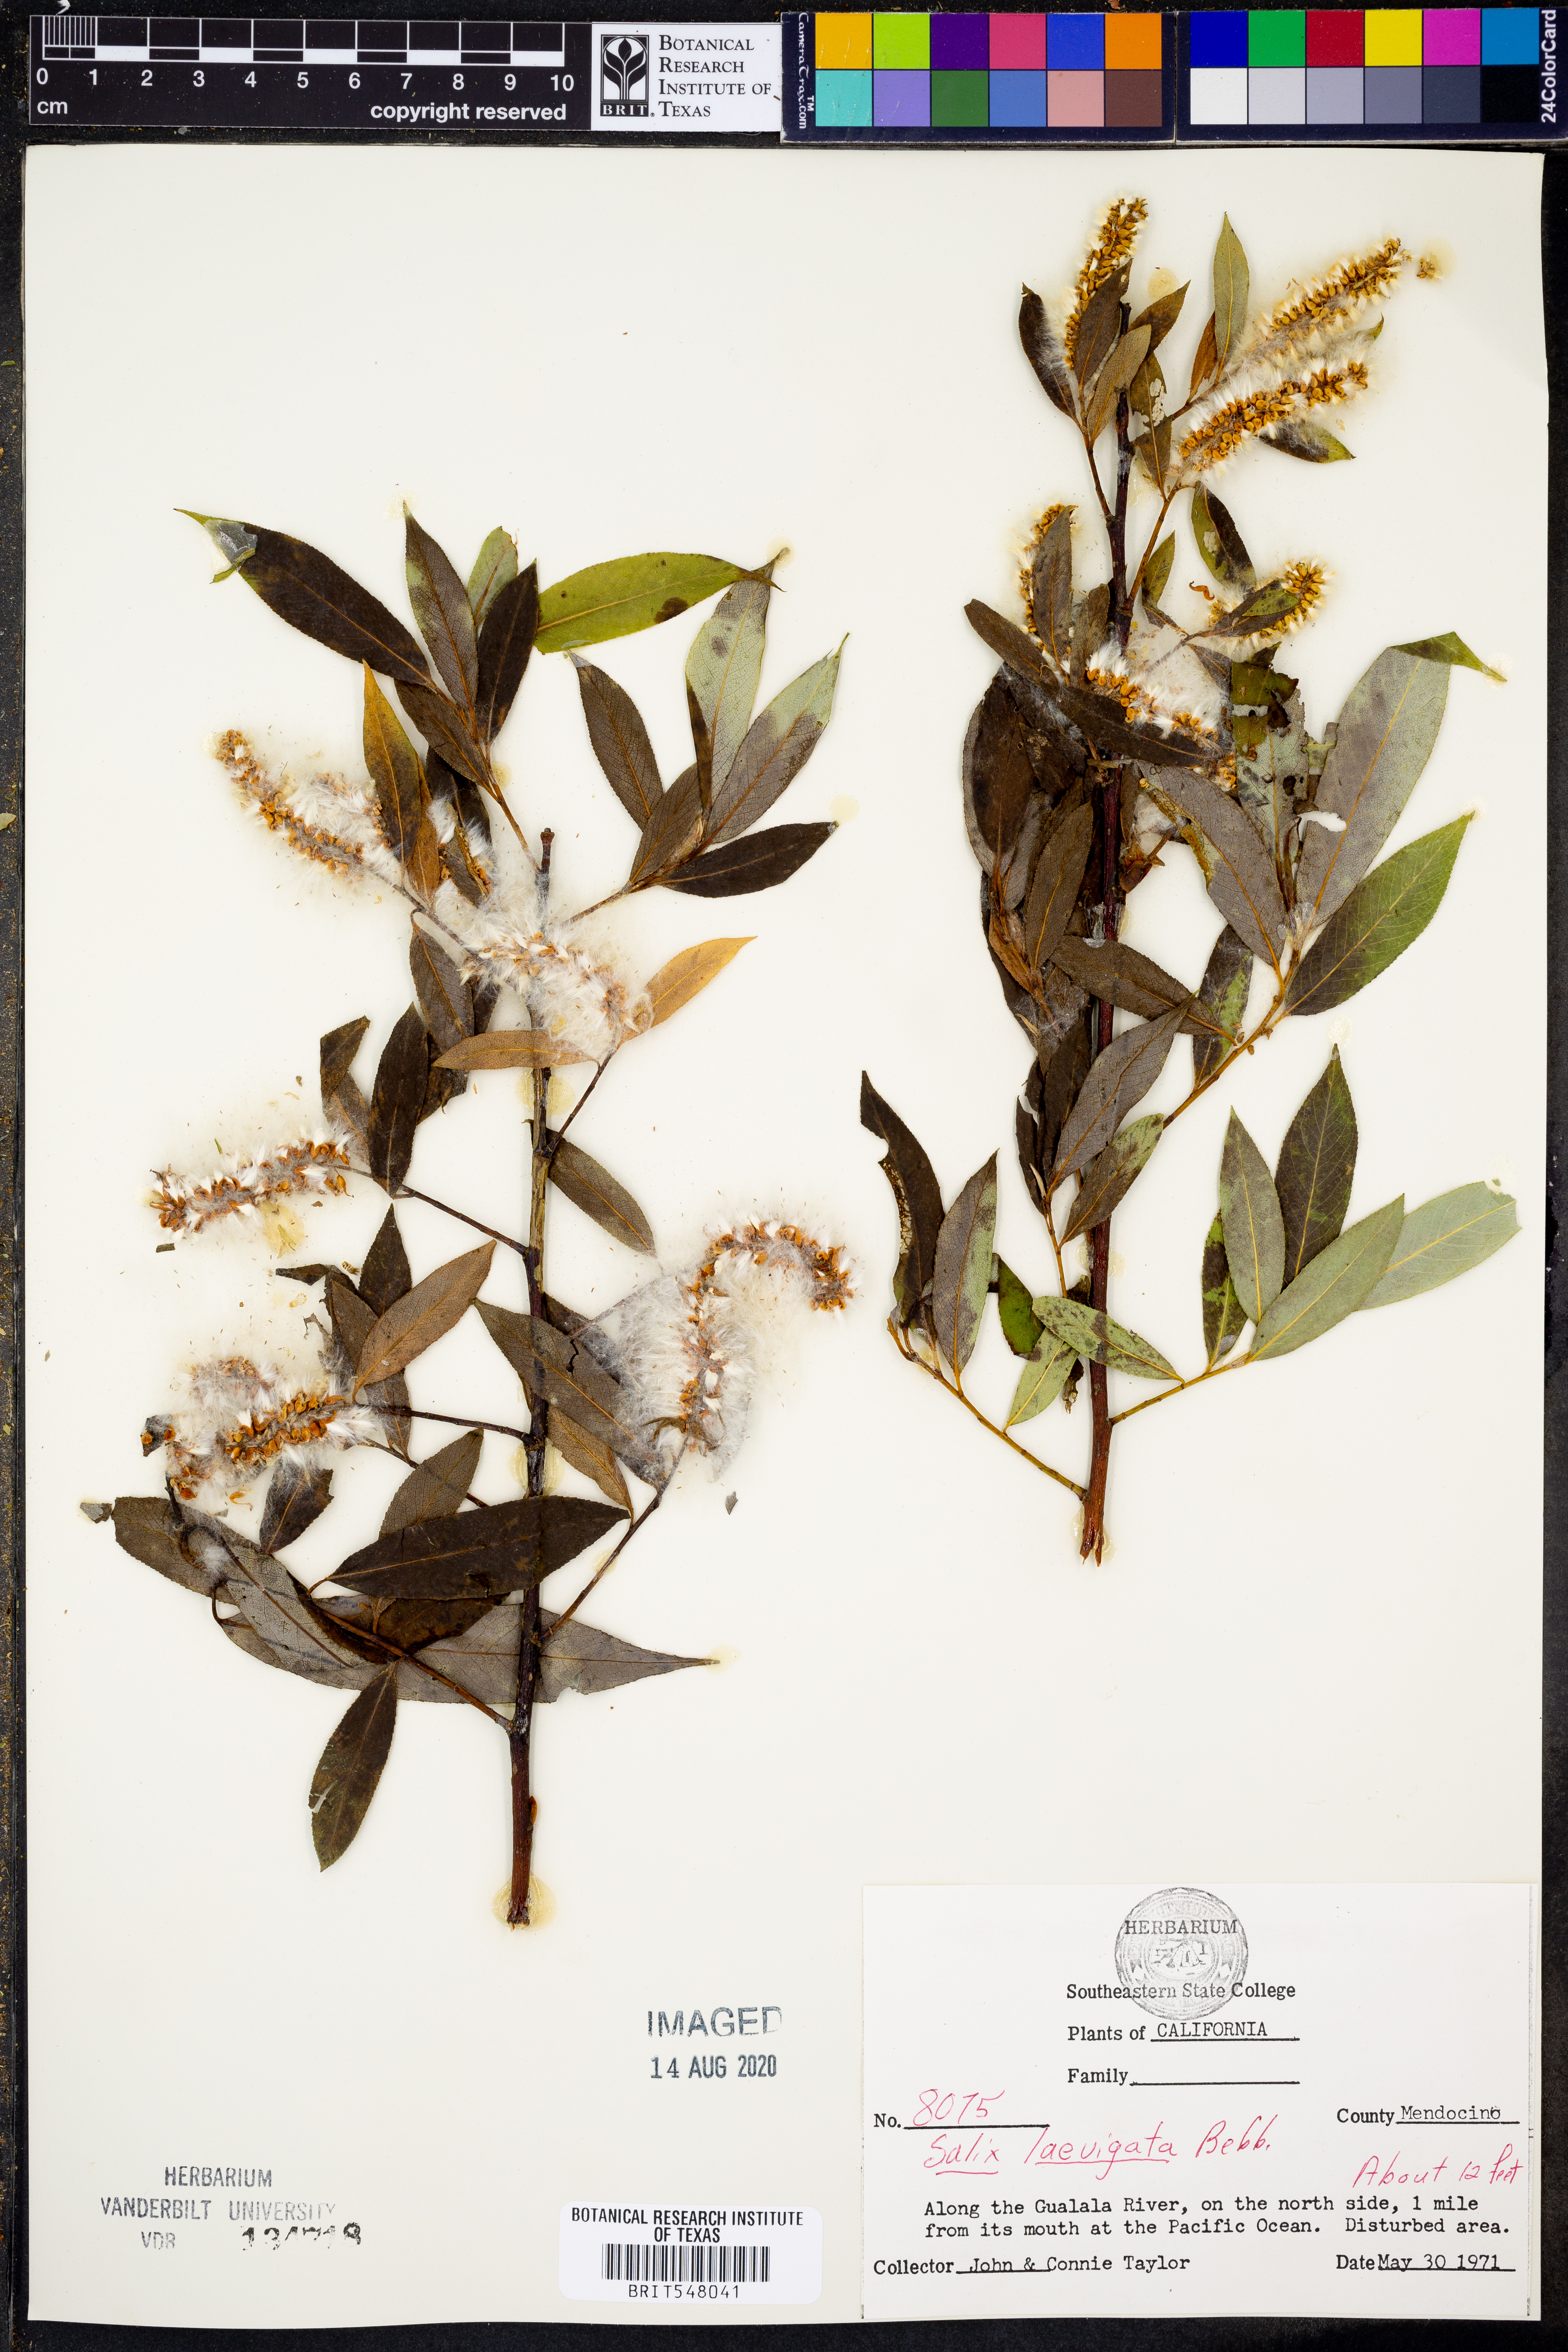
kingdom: Plantae
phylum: Tracheophyta
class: Magnoliopsida
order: Malpighiales
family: Salicaceae
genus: Salix
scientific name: Salix laevigata
